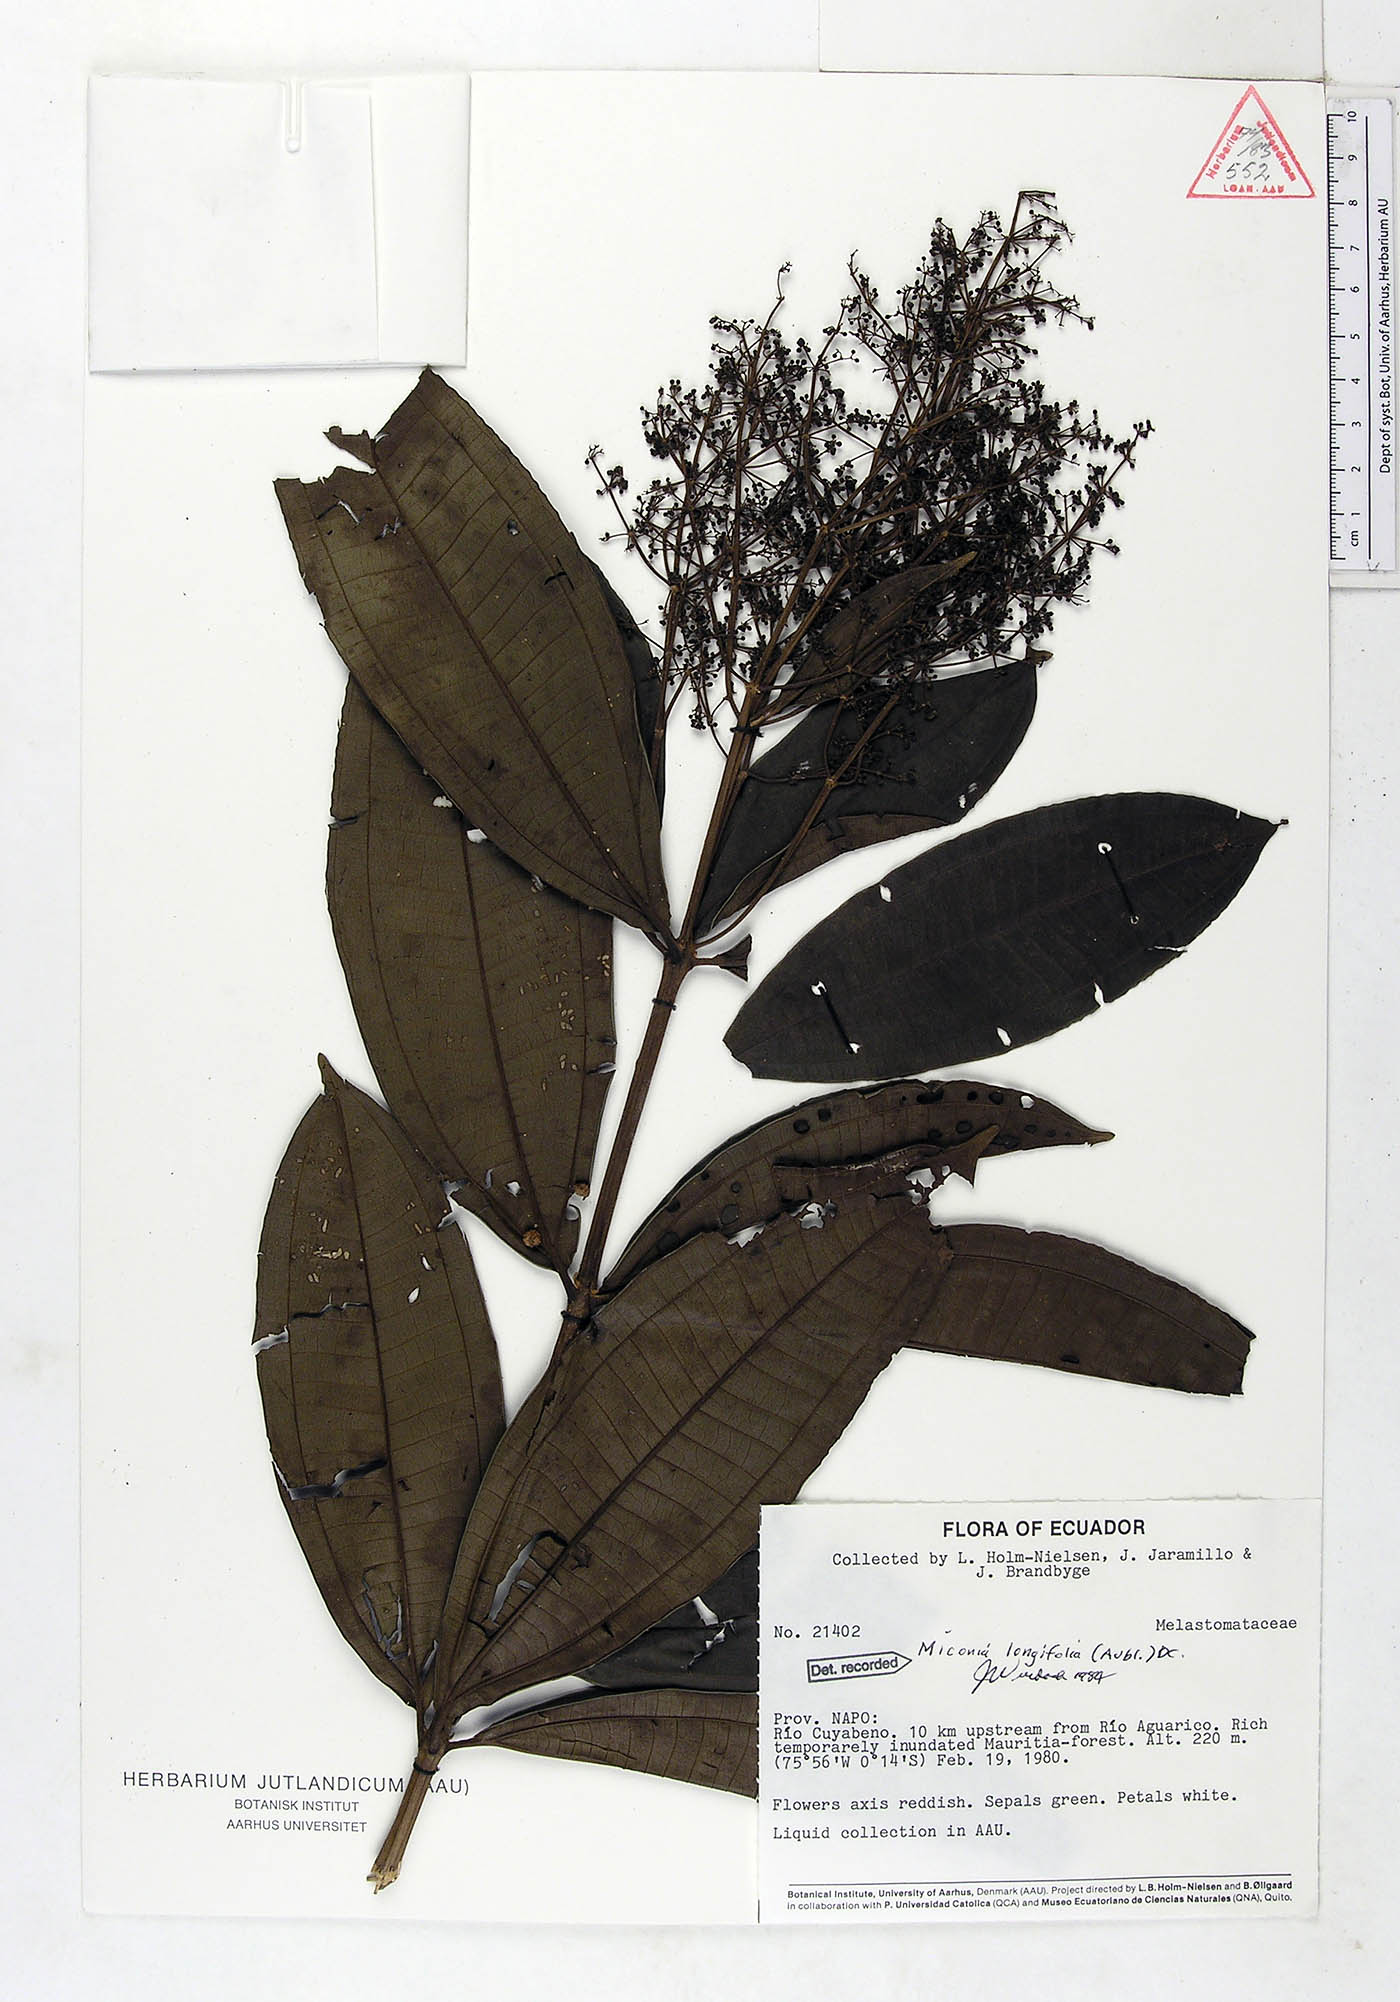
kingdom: Plantae
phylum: Tracheophyta
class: Magnoliopsida
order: Myrtales
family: Melastomataceae
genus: Miconia
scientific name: Miconia longifolia
